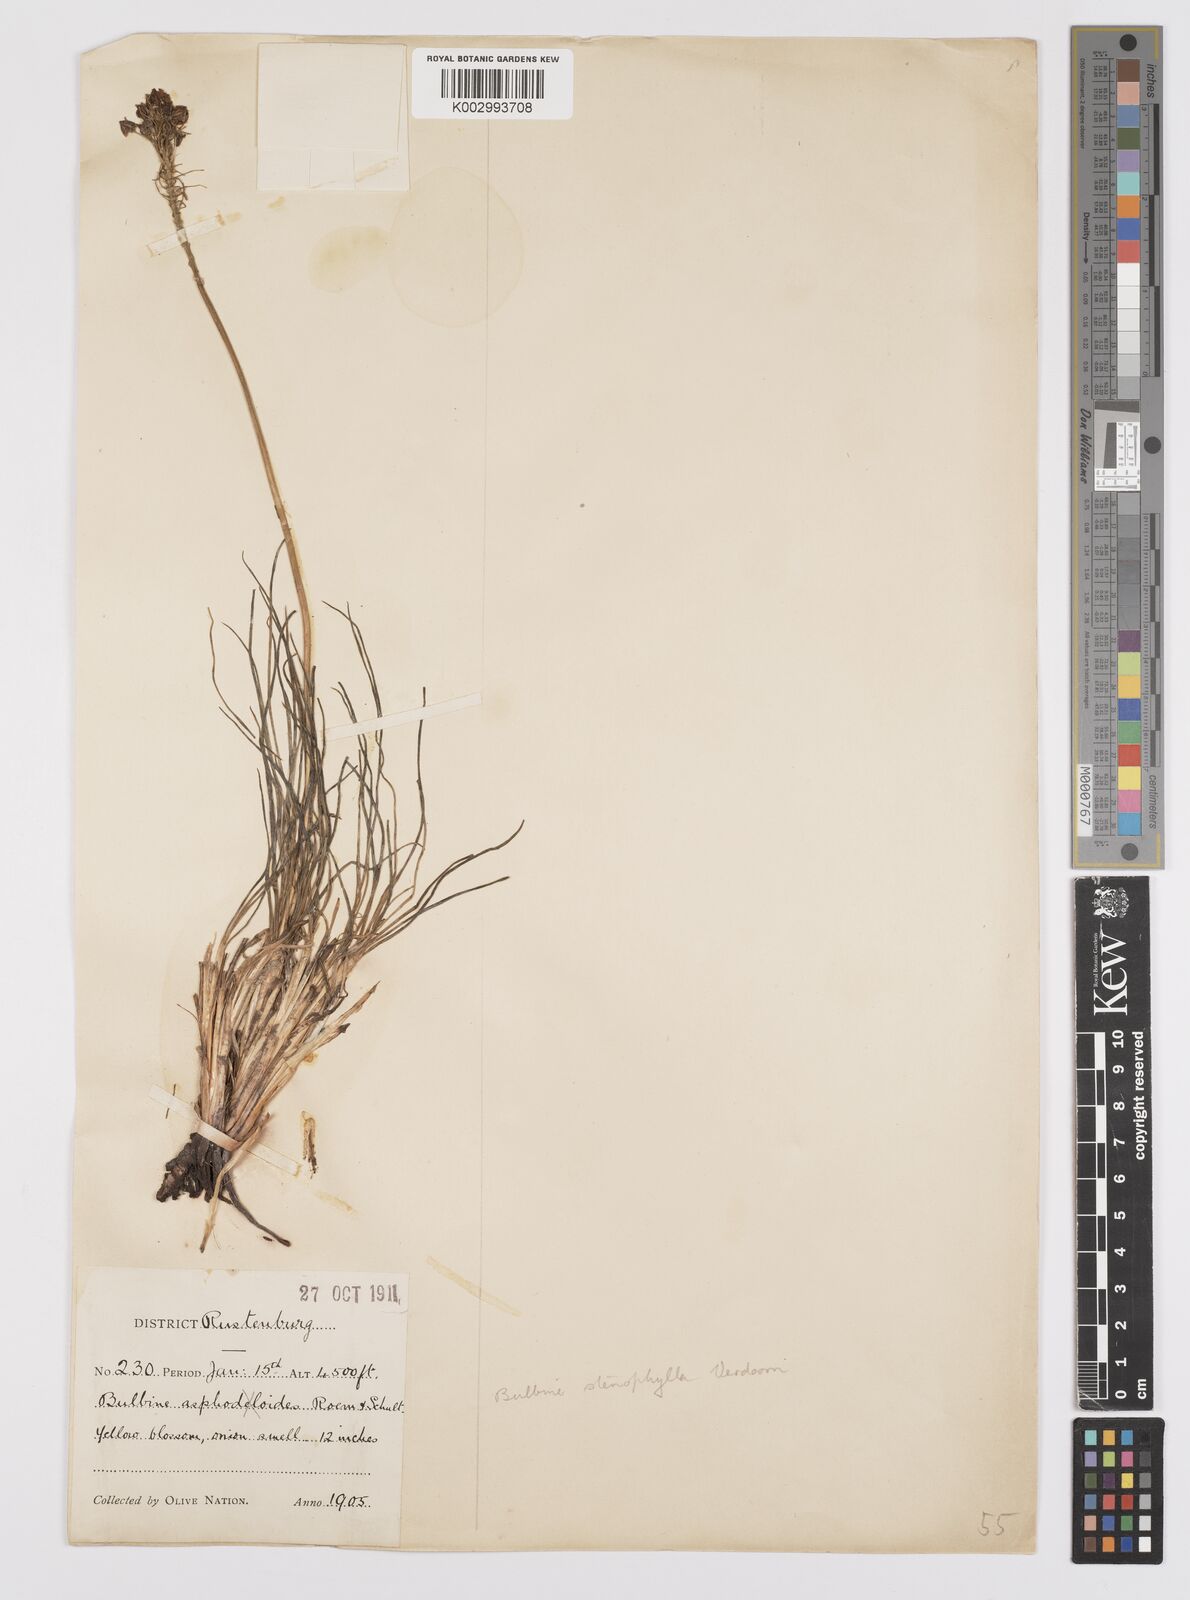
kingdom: Plantae
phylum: Tracheophyta
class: Liliopsida
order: Asparagales
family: Asphodelaceae
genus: Bulbine
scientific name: Bulbine capitata
